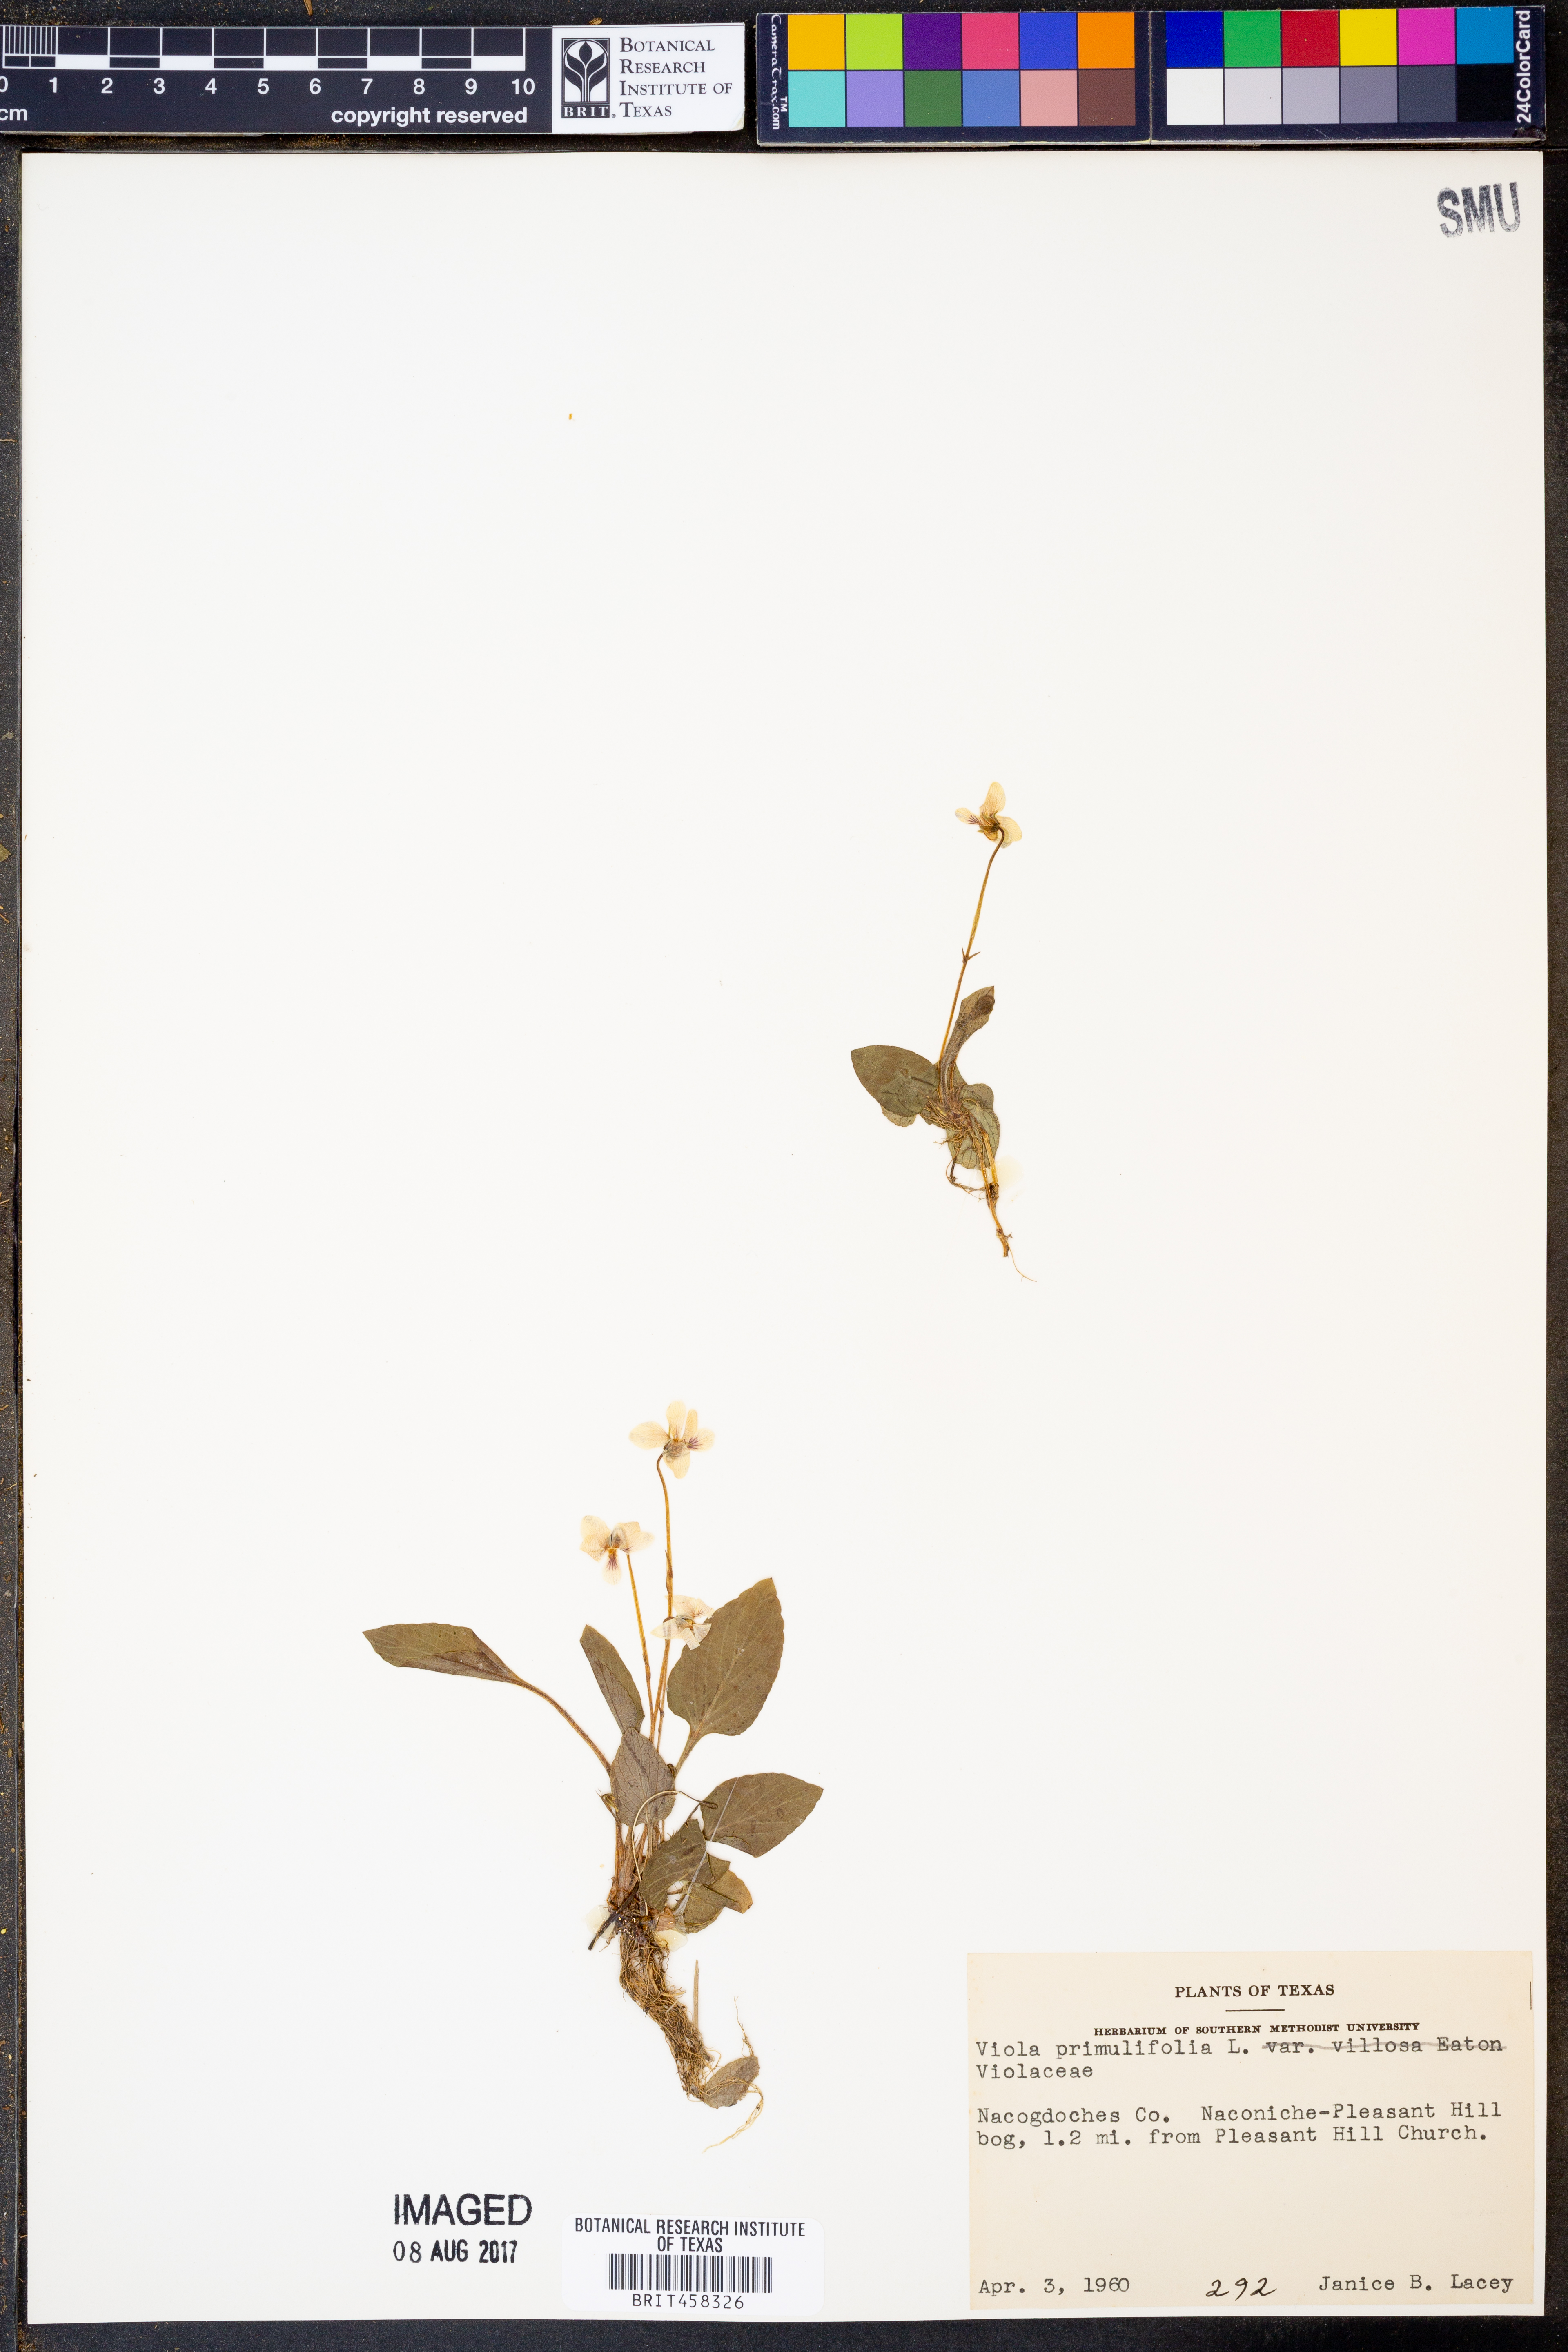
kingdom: Plantae
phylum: Tracheophyta
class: Magnoliopsida
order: Malpighiales
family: Violaceae
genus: Viola
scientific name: Viola primulifolia
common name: Primrose-leaf violet
